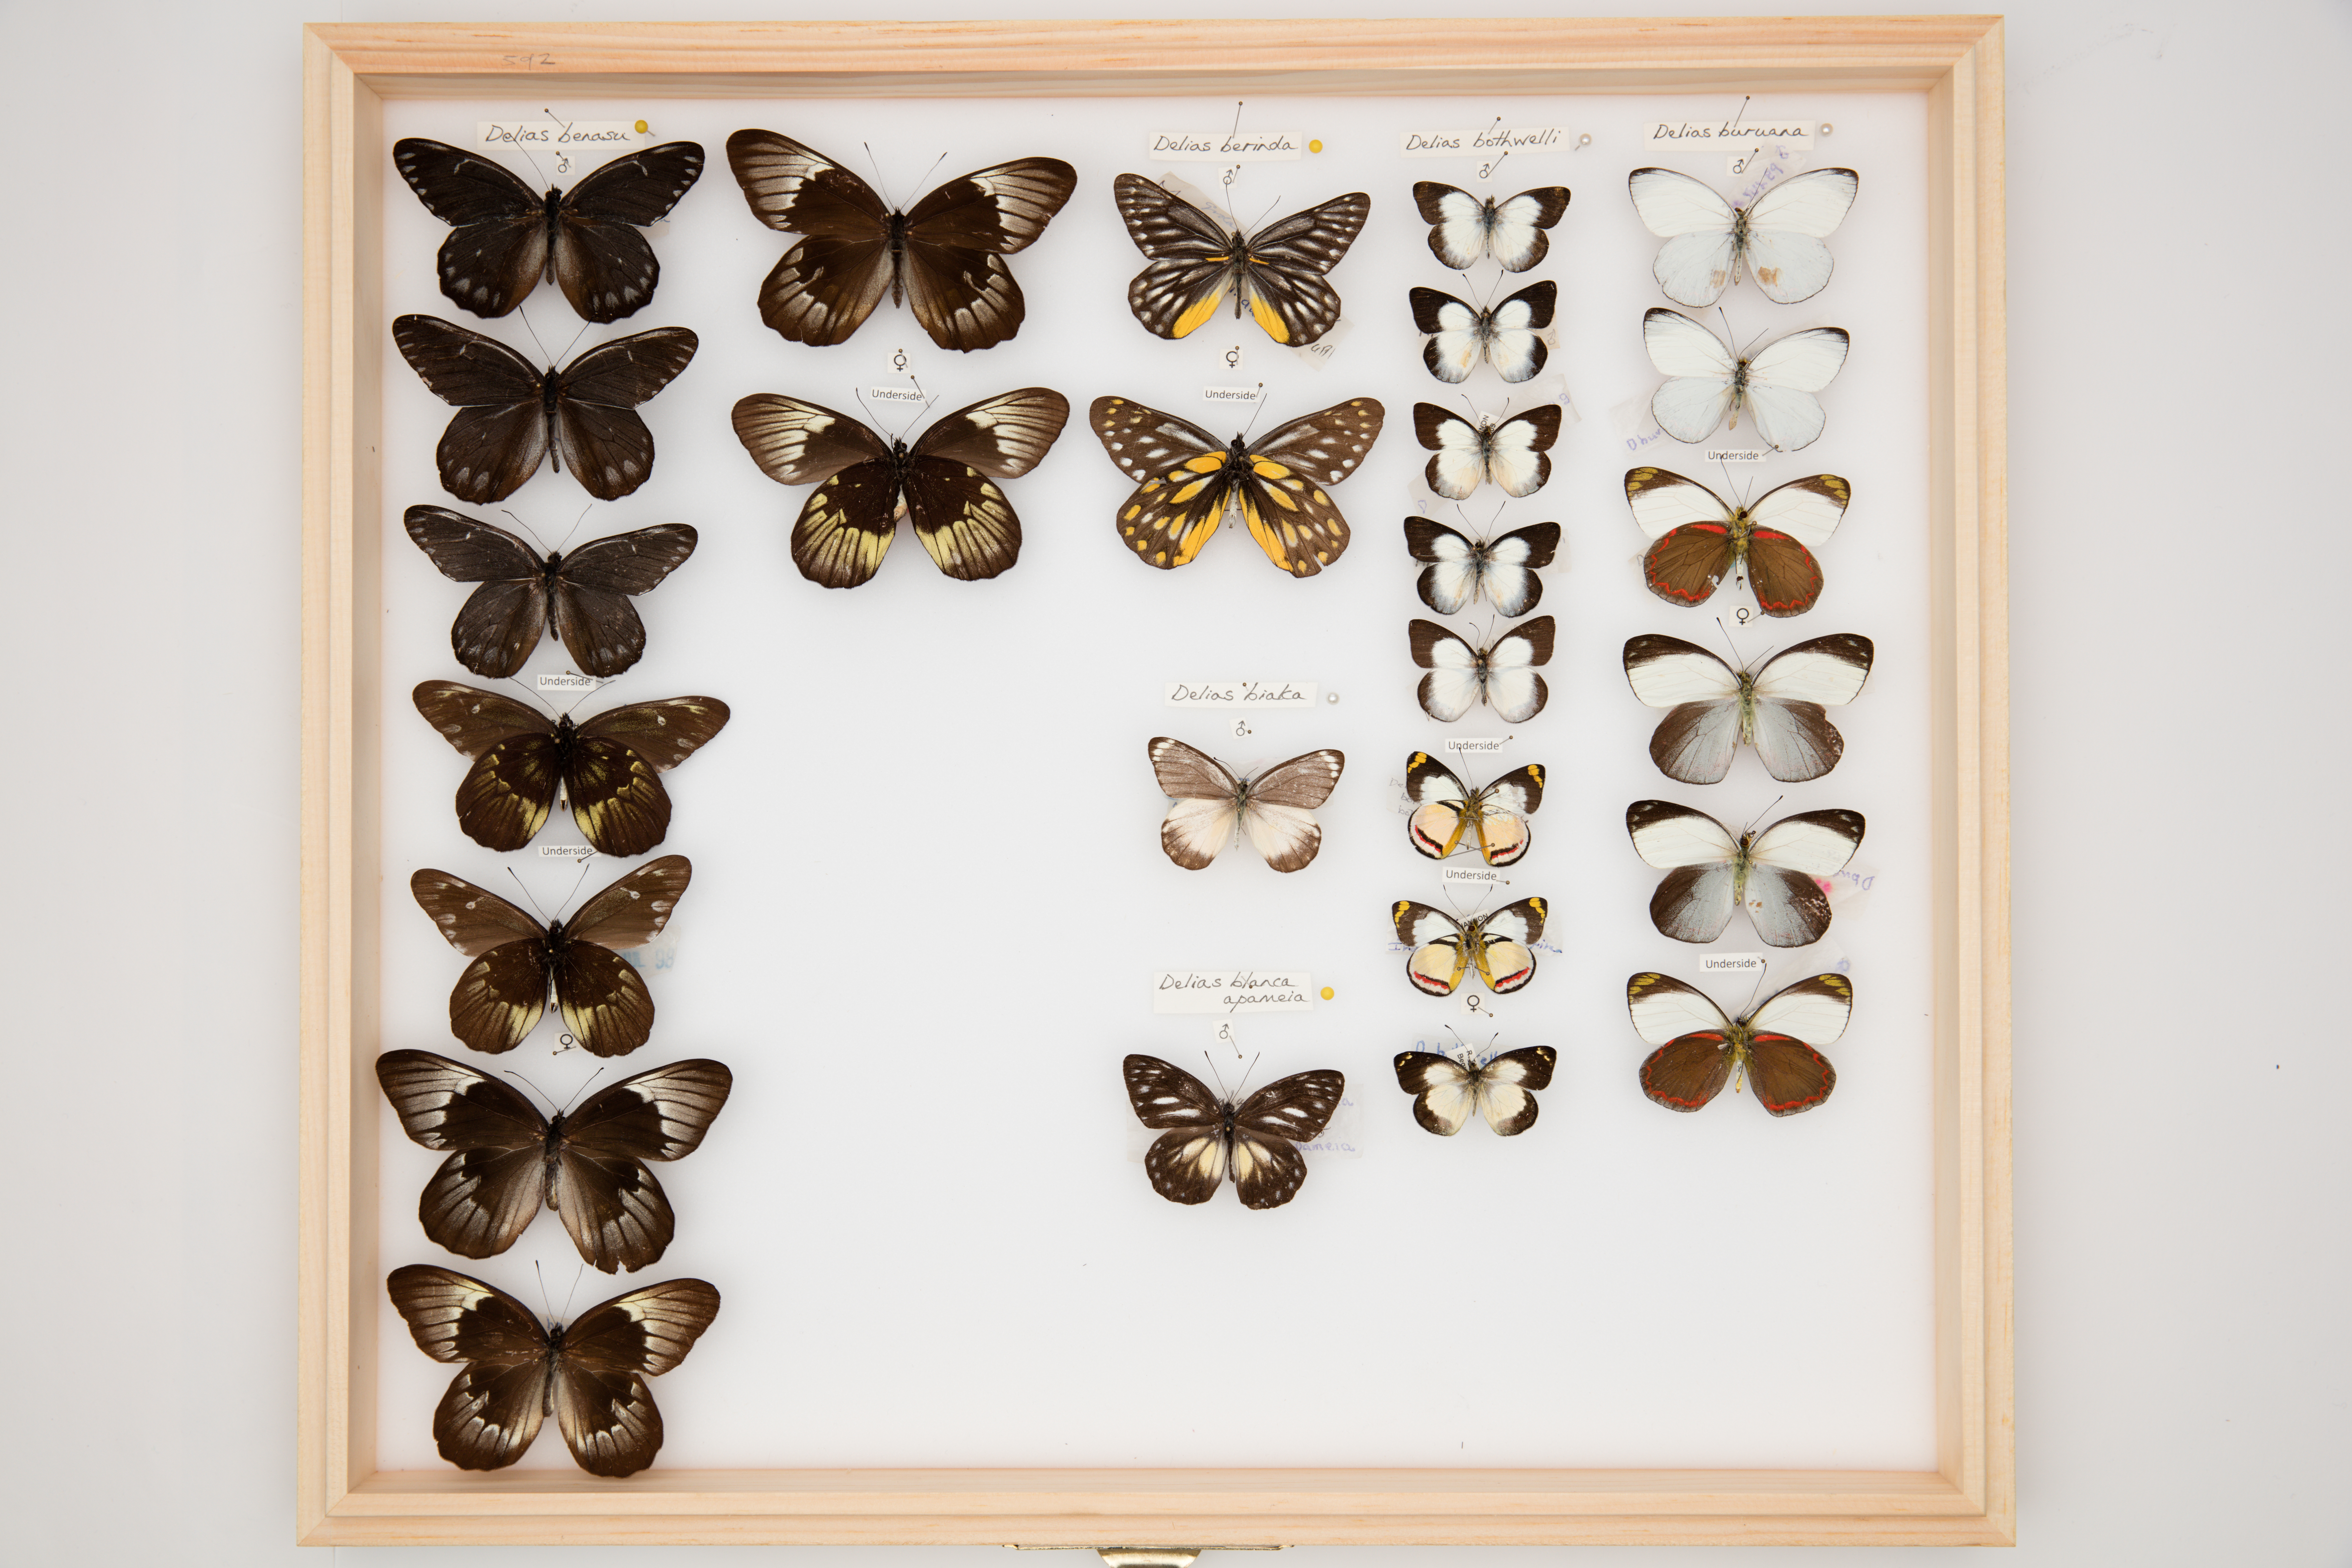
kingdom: Animalia
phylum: Arthropoda
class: Insecta
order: Lepidoptera
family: Pieridae
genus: Delias
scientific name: Delias bothwelli
